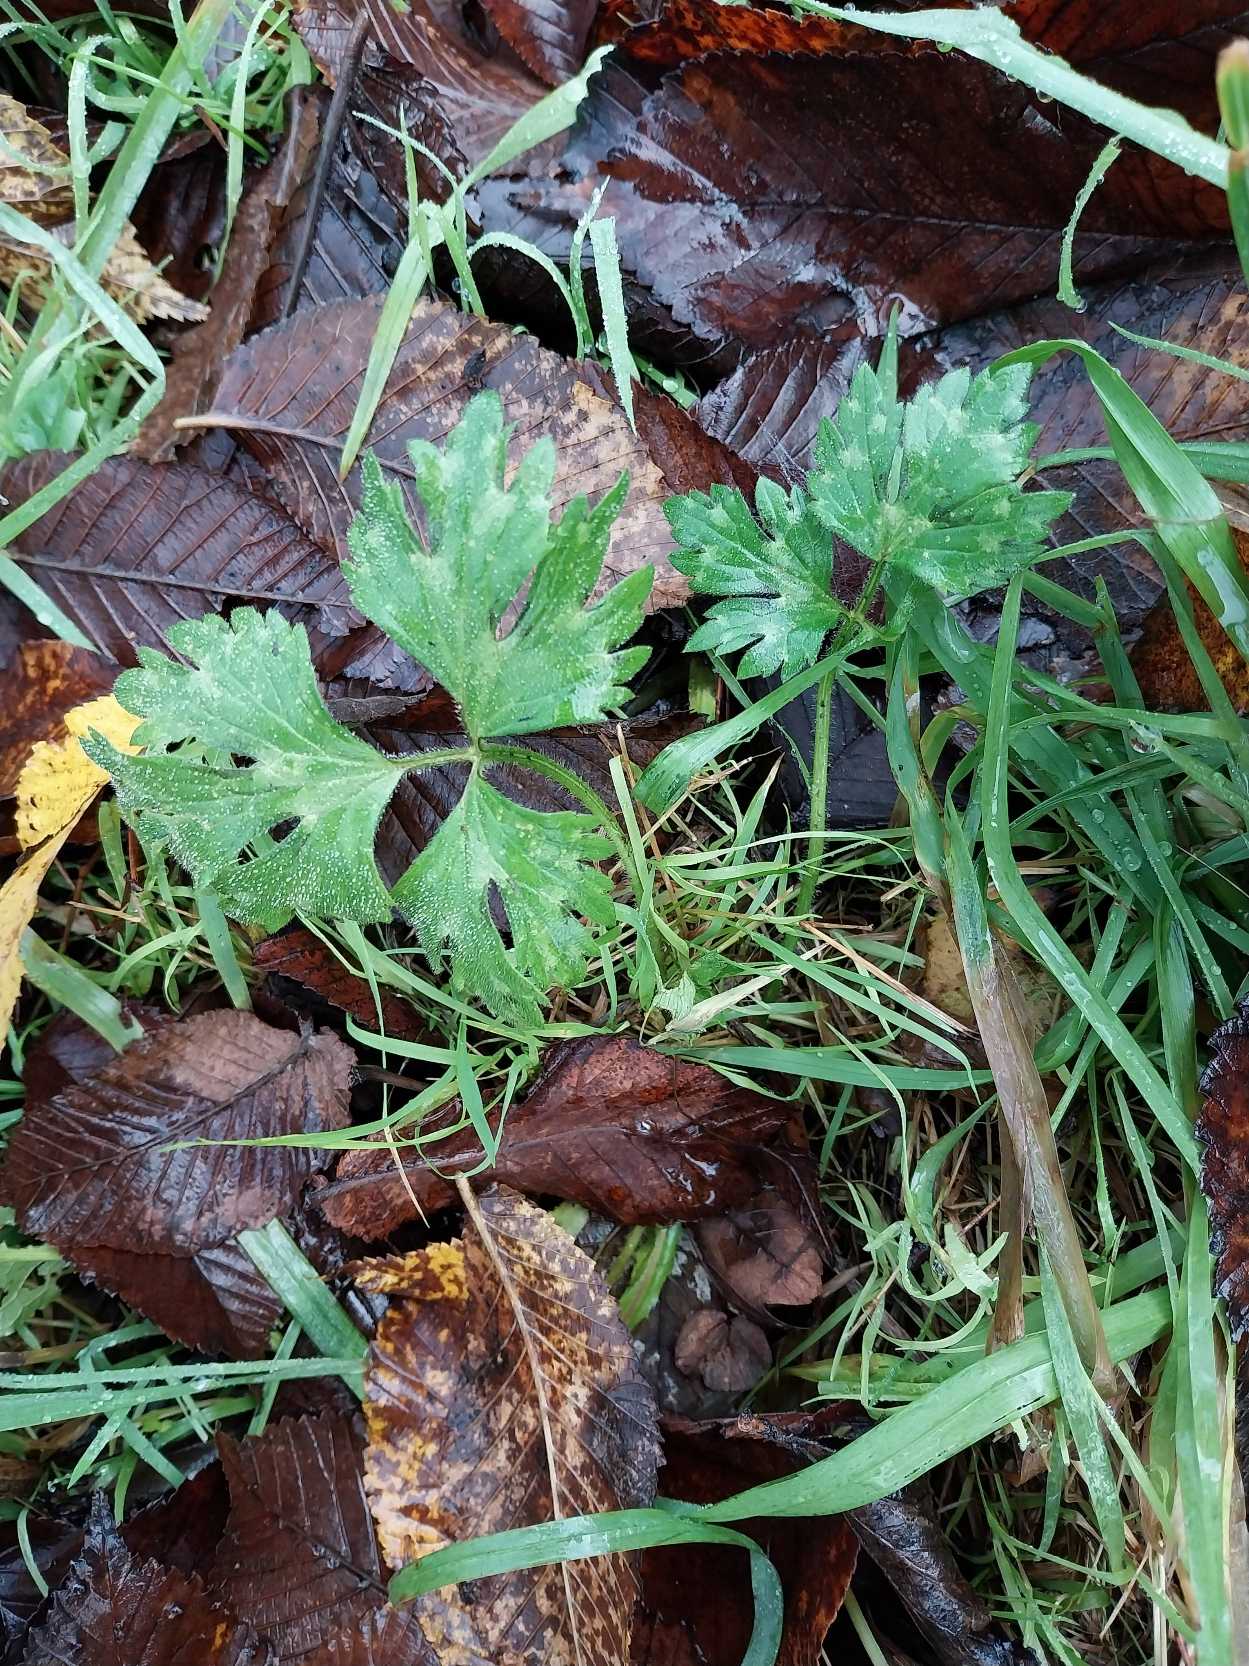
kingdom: Plantae
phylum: Tracheophyta
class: Magnoliopsida
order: Ranunculales
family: Ranunculaceae
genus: Ranunculus
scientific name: Ranunculus repens
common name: Lav ranunkel
